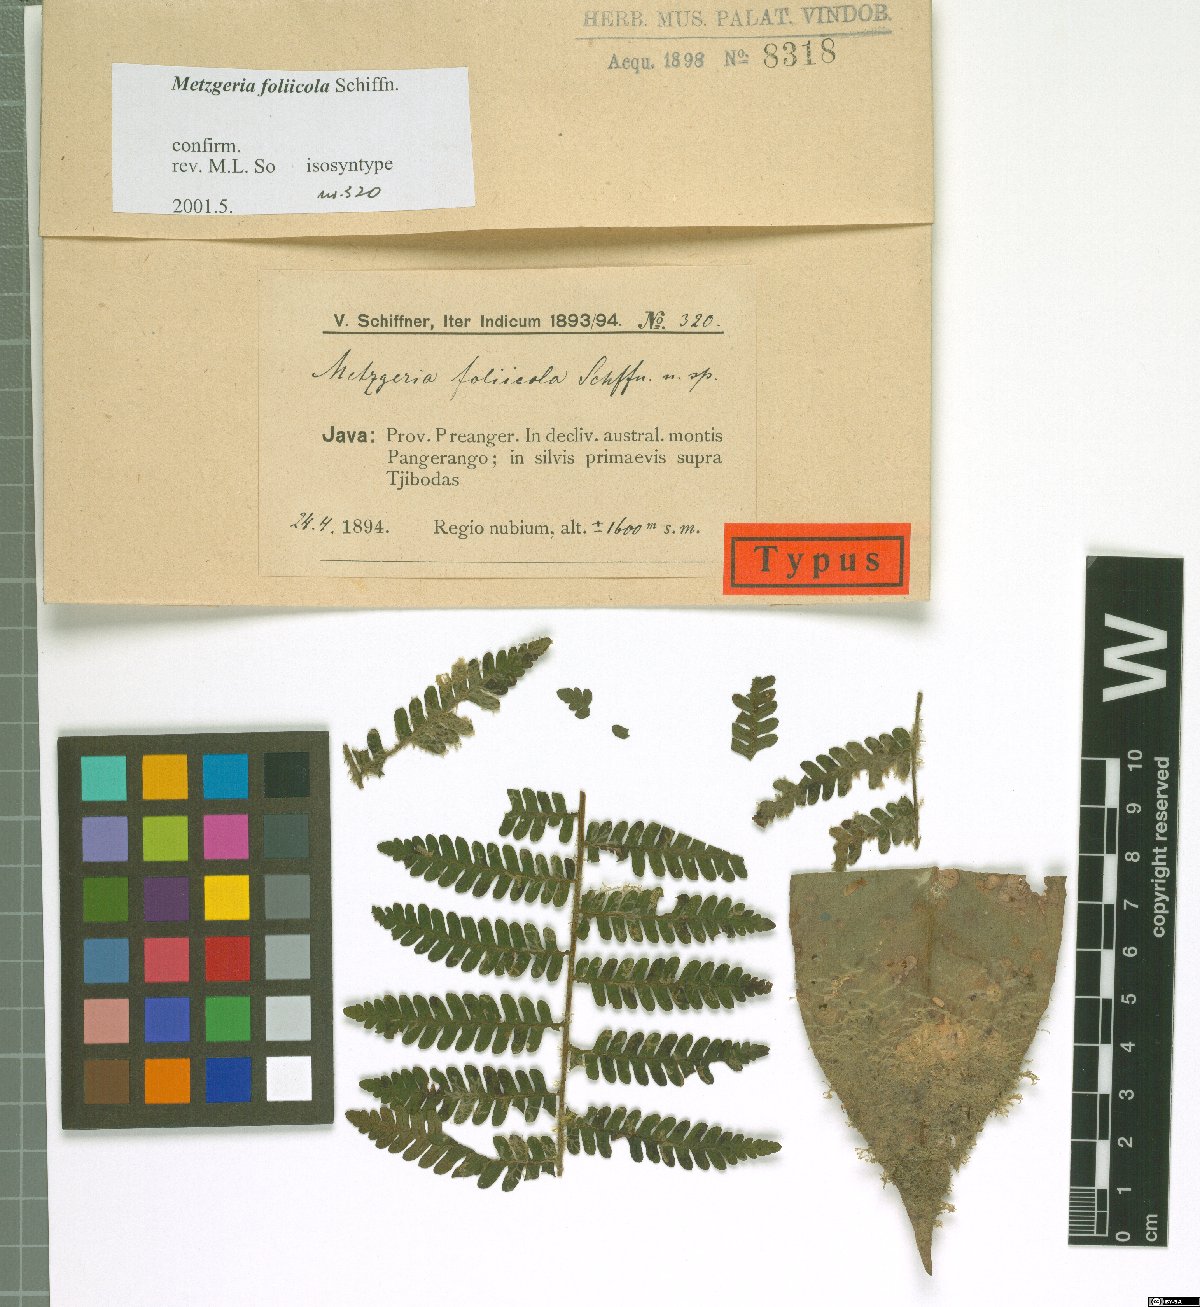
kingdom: Plantae
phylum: Marchantiophyta
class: Jungermanniopsida
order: Metzgeriales
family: Metzgeriaceae
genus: Metzgeria
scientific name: Metzgeria foliicola
